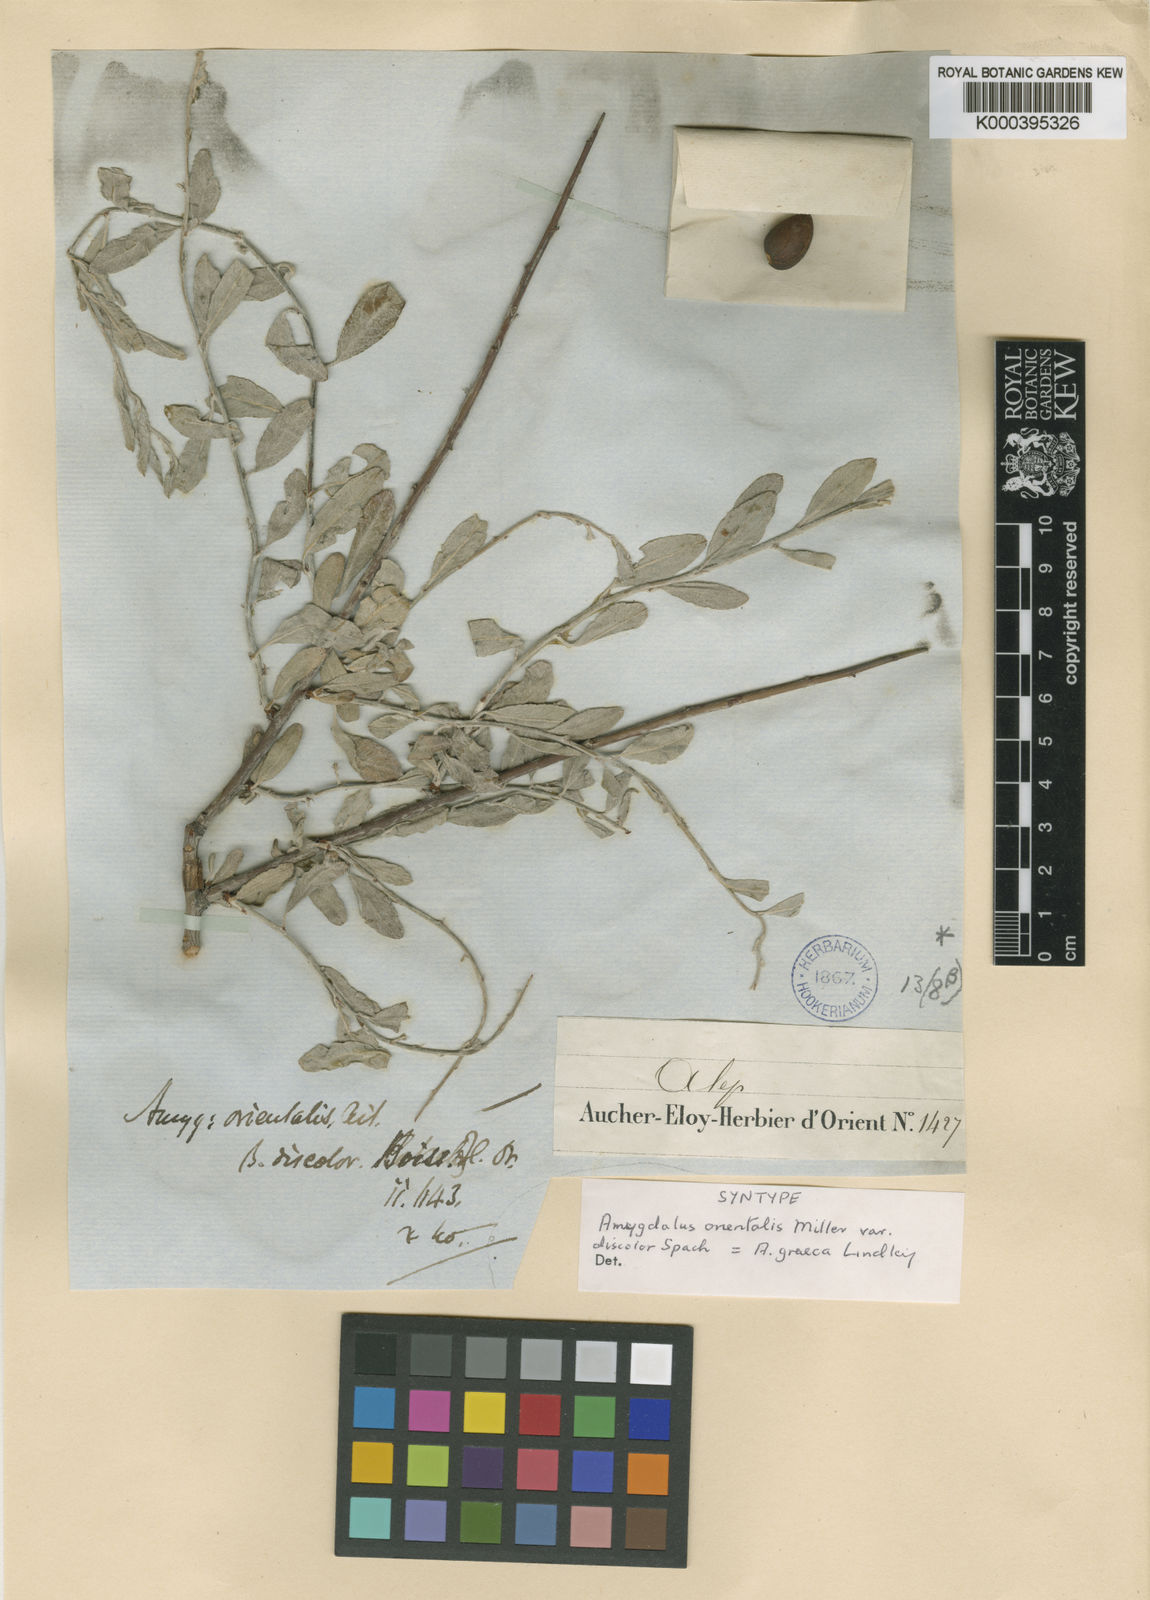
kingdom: Plantae
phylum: Tracheophyta
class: Magnoliopsida
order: Rosales
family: Rosaceae
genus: Prunus
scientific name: Prunus discolor
